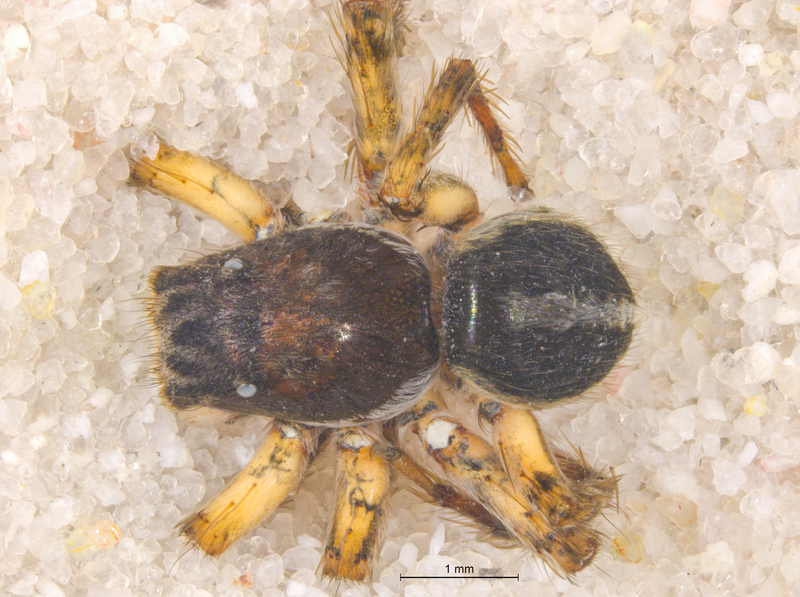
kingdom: Animalia
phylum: Arthropoda
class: Arachnida
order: Araneae
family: Salticidae
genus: Aelurillus
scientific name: Aelurillus v-insignitus
